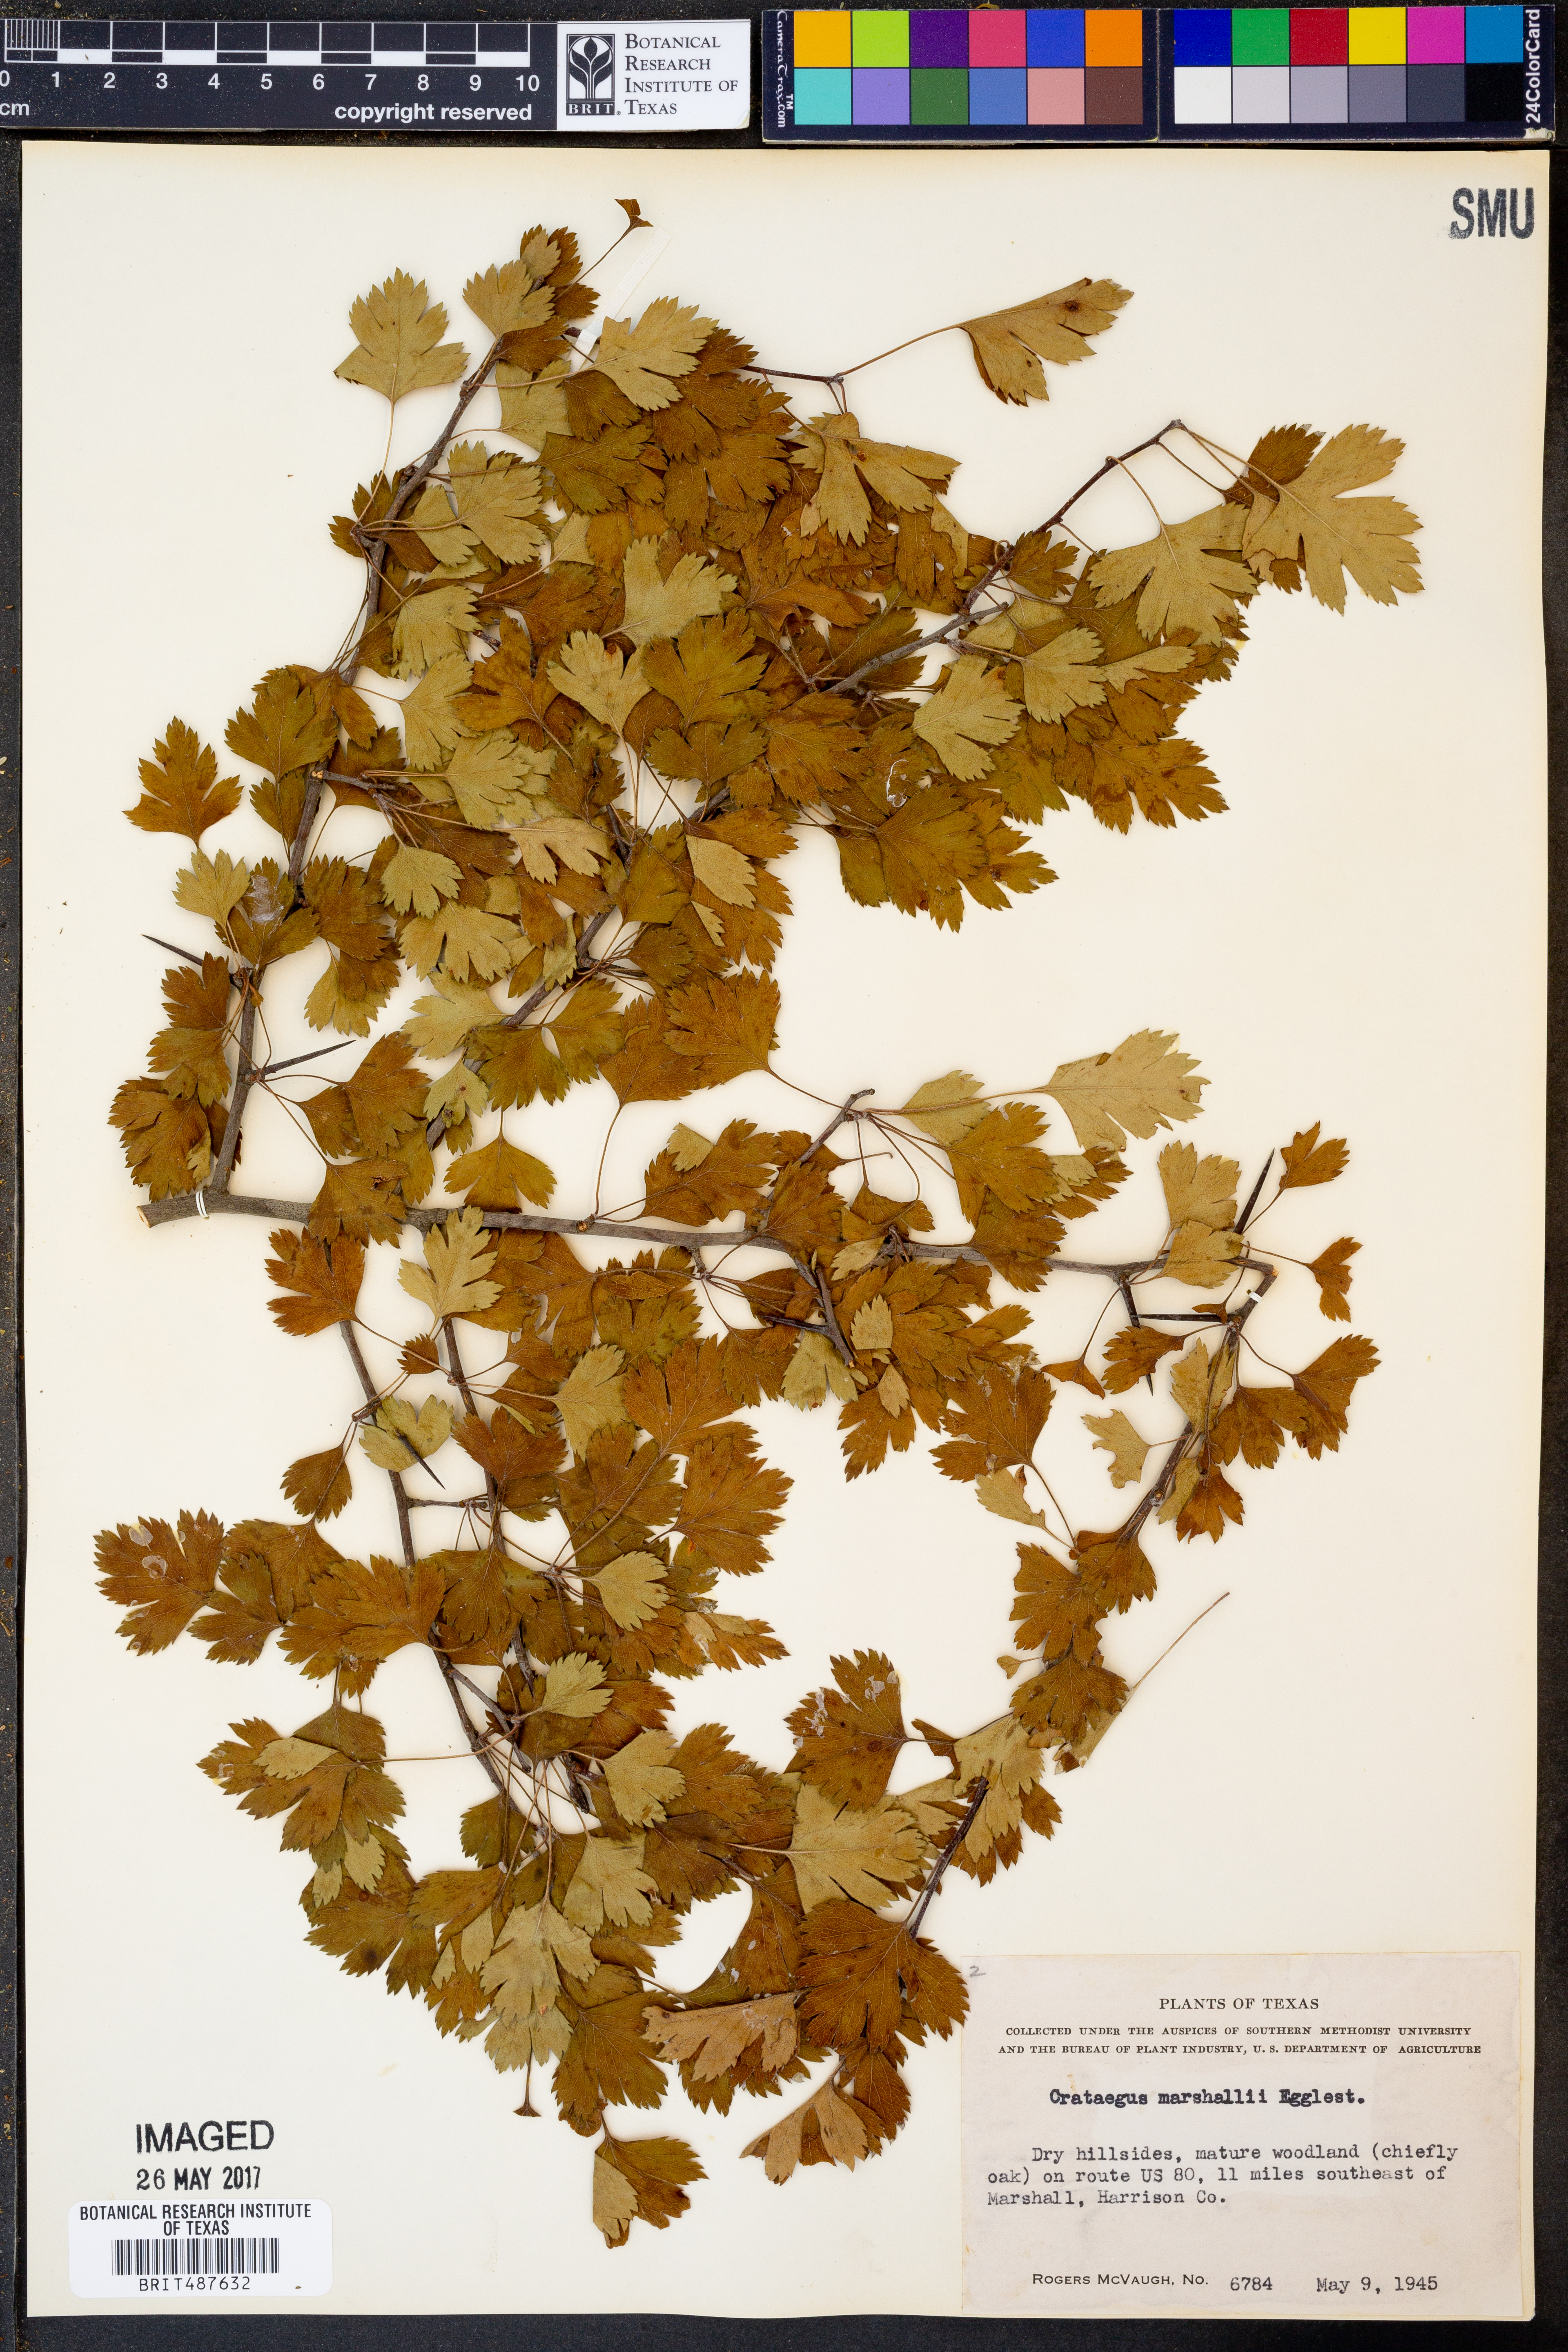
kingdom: Plantae
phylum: Tracheophyta
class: Magnoliopsida
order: Rosales
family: Rosaceae
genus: Crataegus
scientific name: Crataegus marshallii
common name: Parsley-hawthorn
